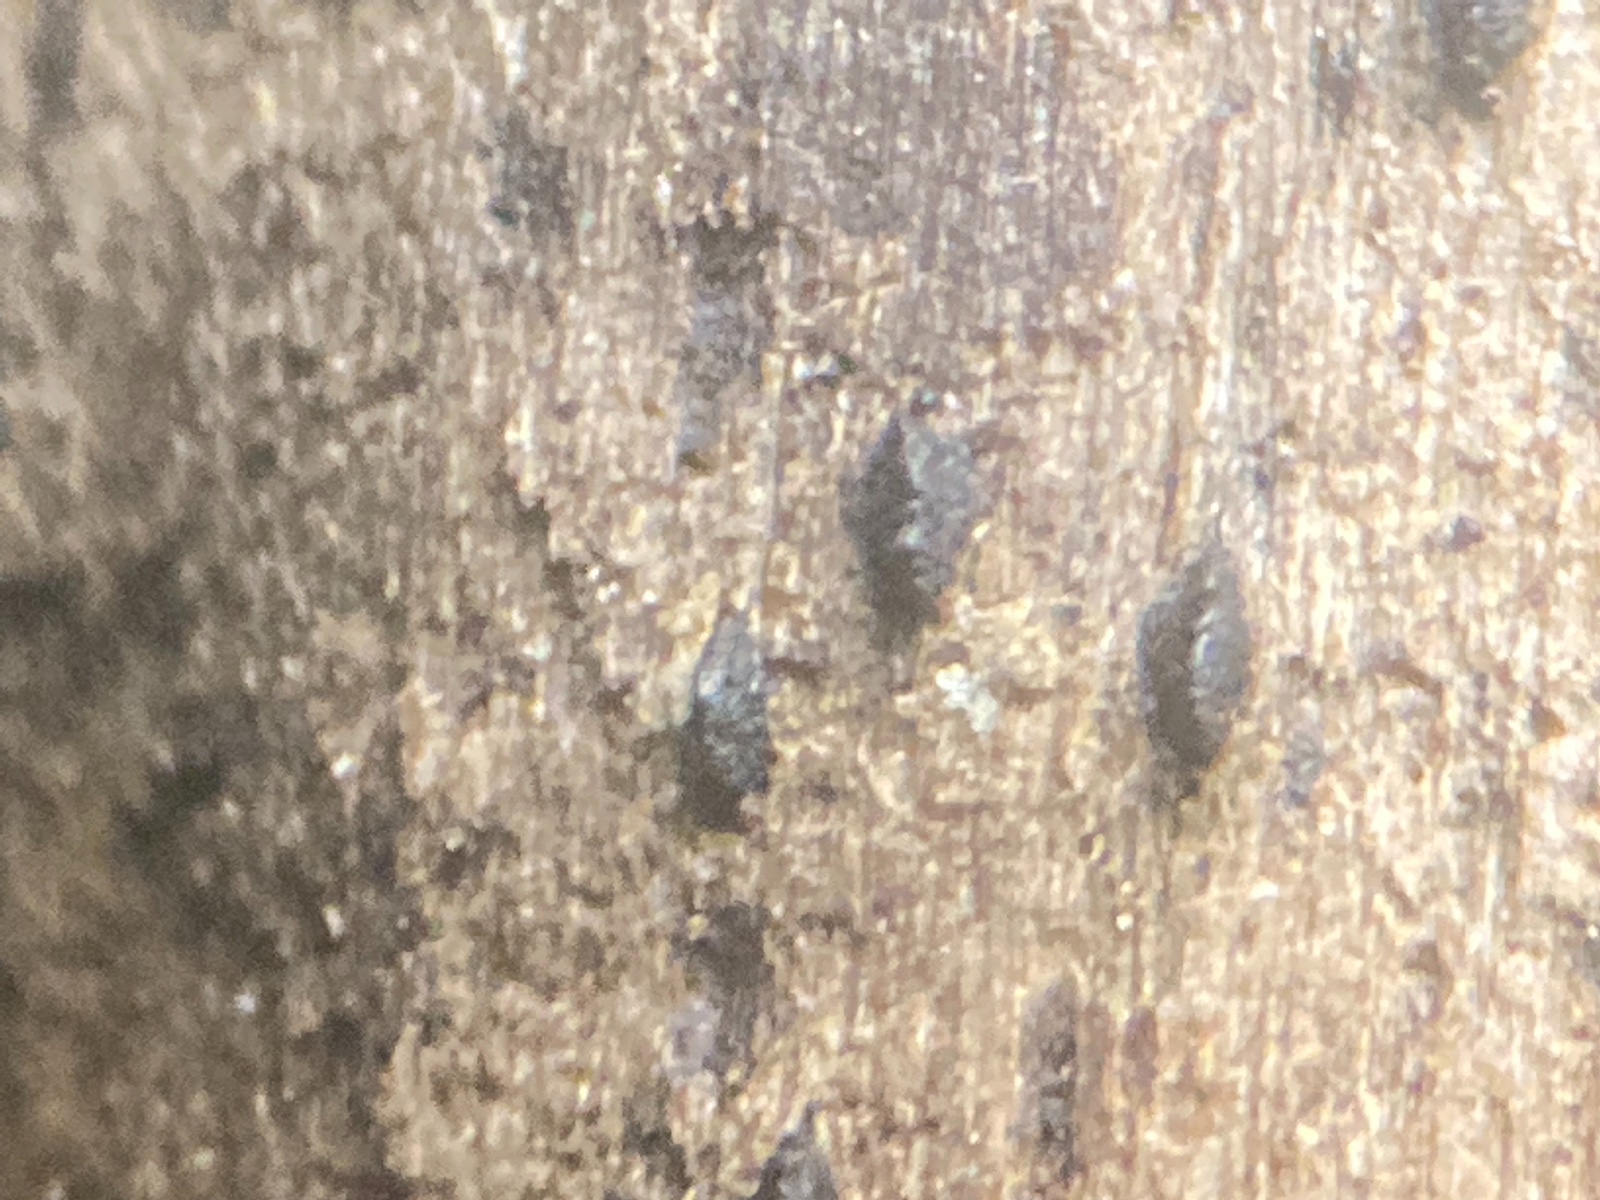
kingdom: Fungi
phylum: Ascomycota
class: Dothideomycetes
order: Pleosporales
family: Thyridariaceae
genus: Thyridaria
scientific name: Thyridaria macrostomoides
